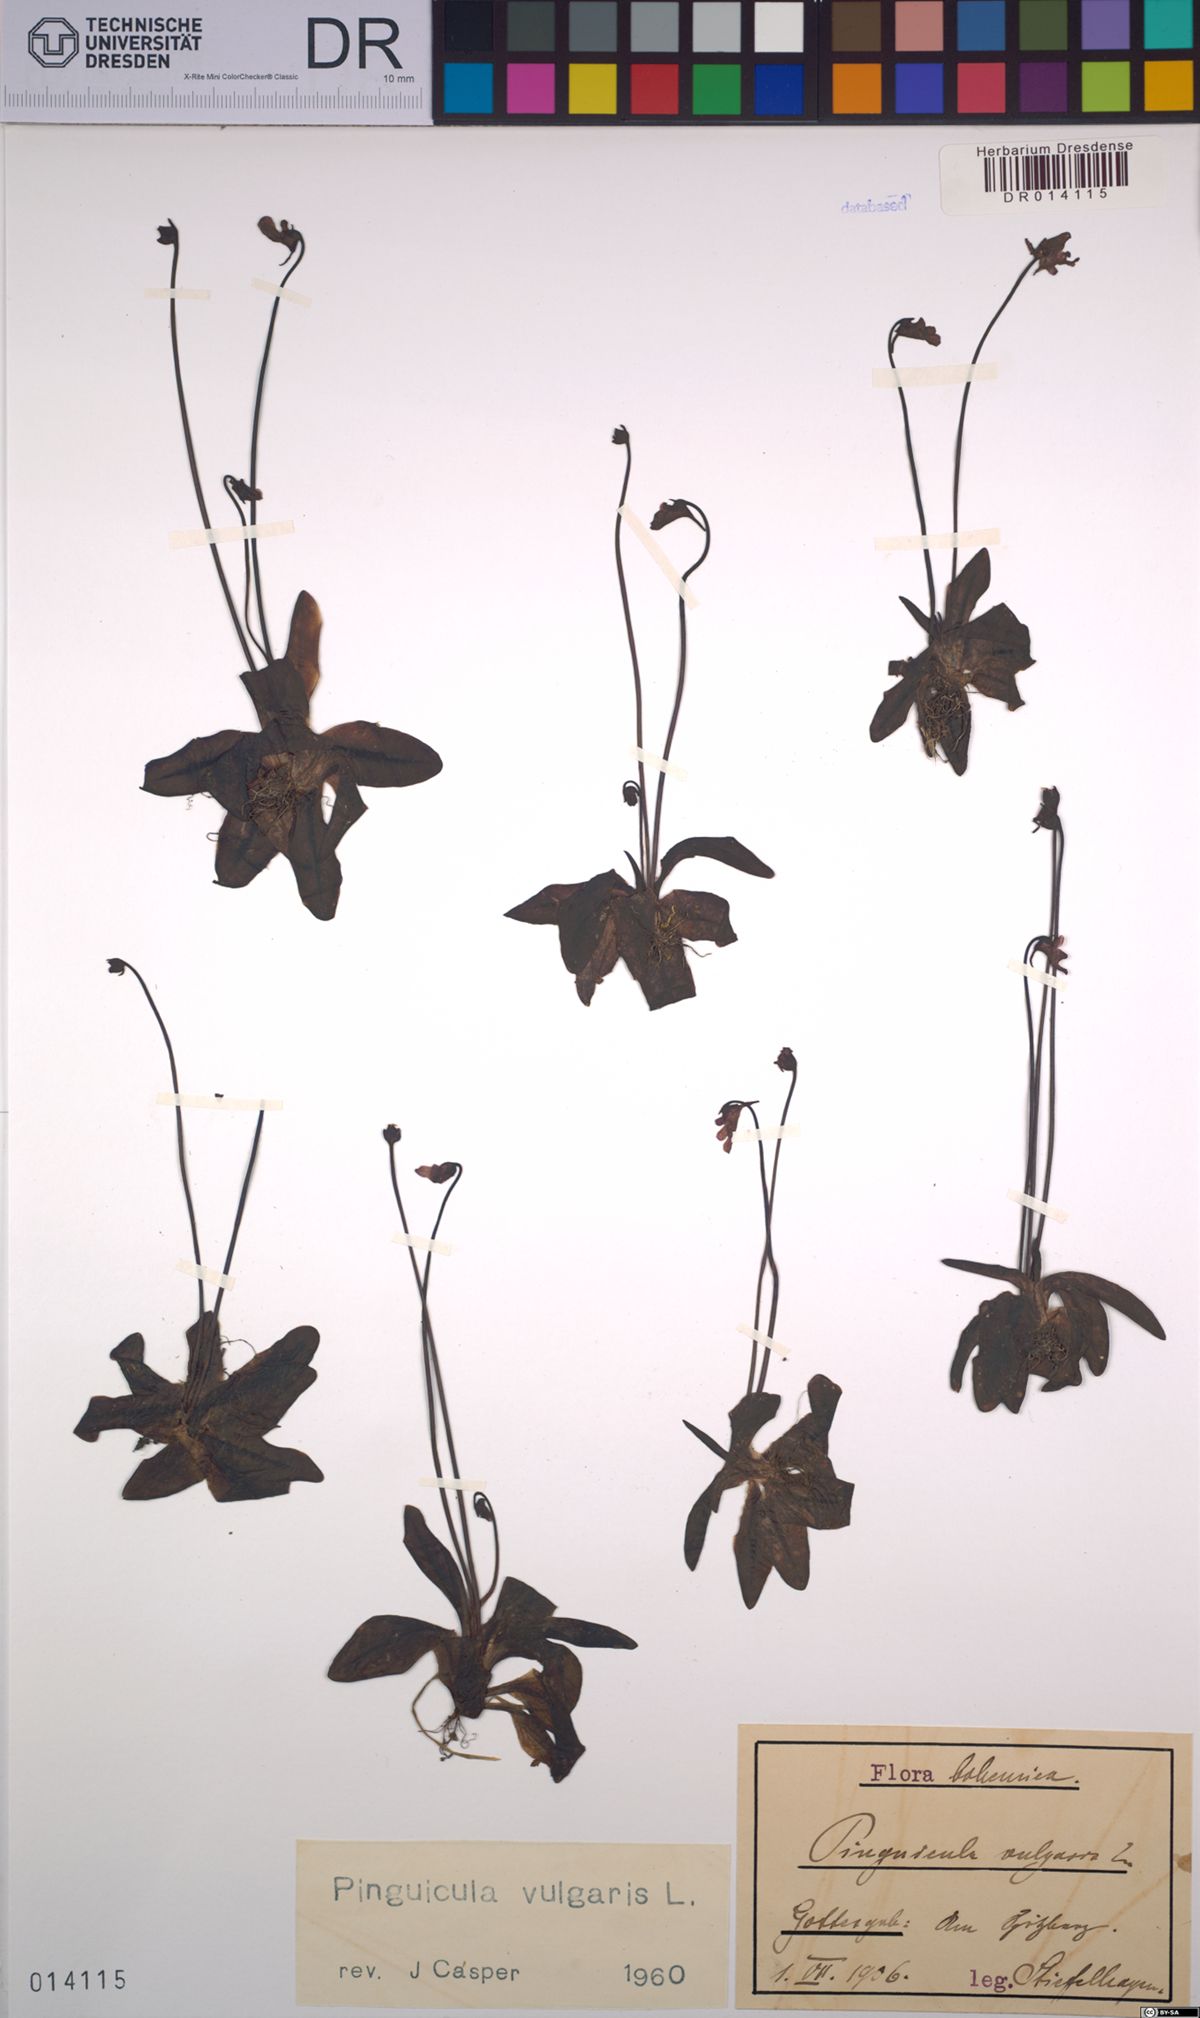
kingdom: Plantae
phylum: Tracheophyta
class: Magnoliopsida
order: Lamiales
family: Lentibulariaceae
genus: Pinguicula
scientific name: Pinguicula vulgaris
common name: Common butterwort
